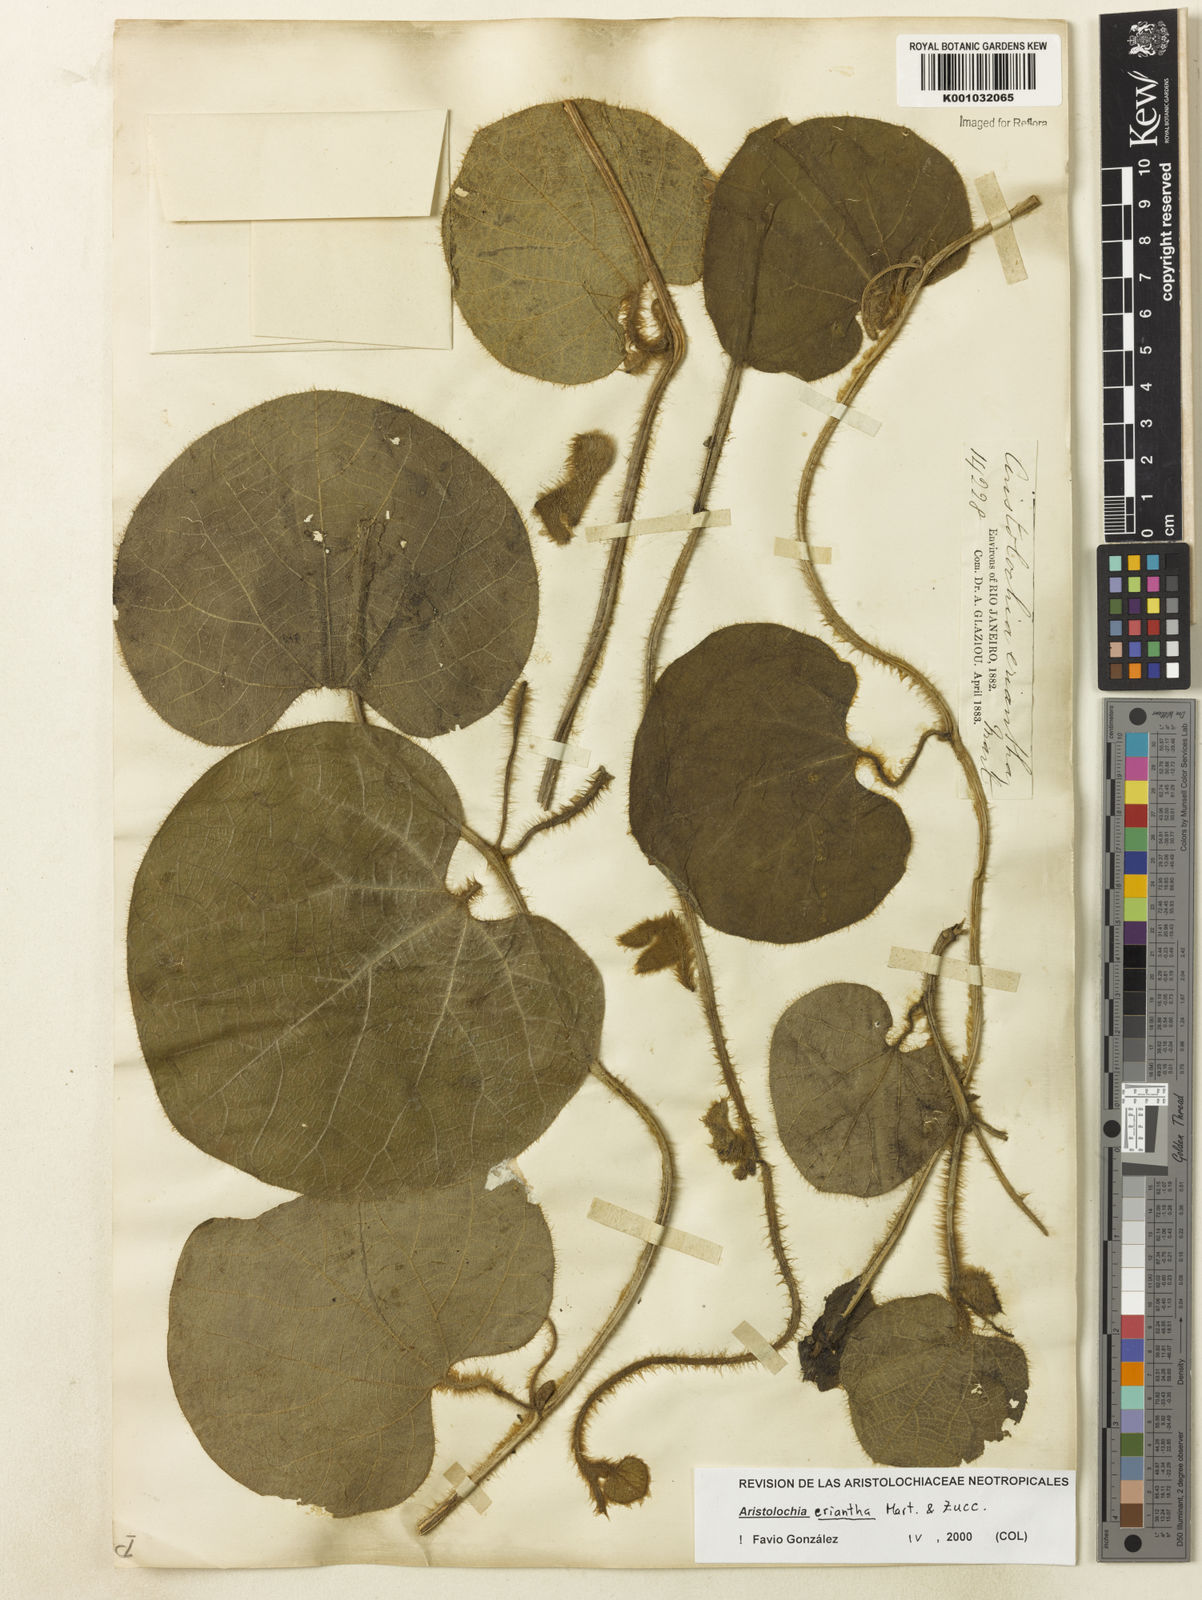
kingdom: Plantae
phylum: Tracheophyta
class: Magnoliopsida
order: Piperales
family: Aristolochiaceae
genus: Aristolochia
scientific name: Aristolochia eriantha
